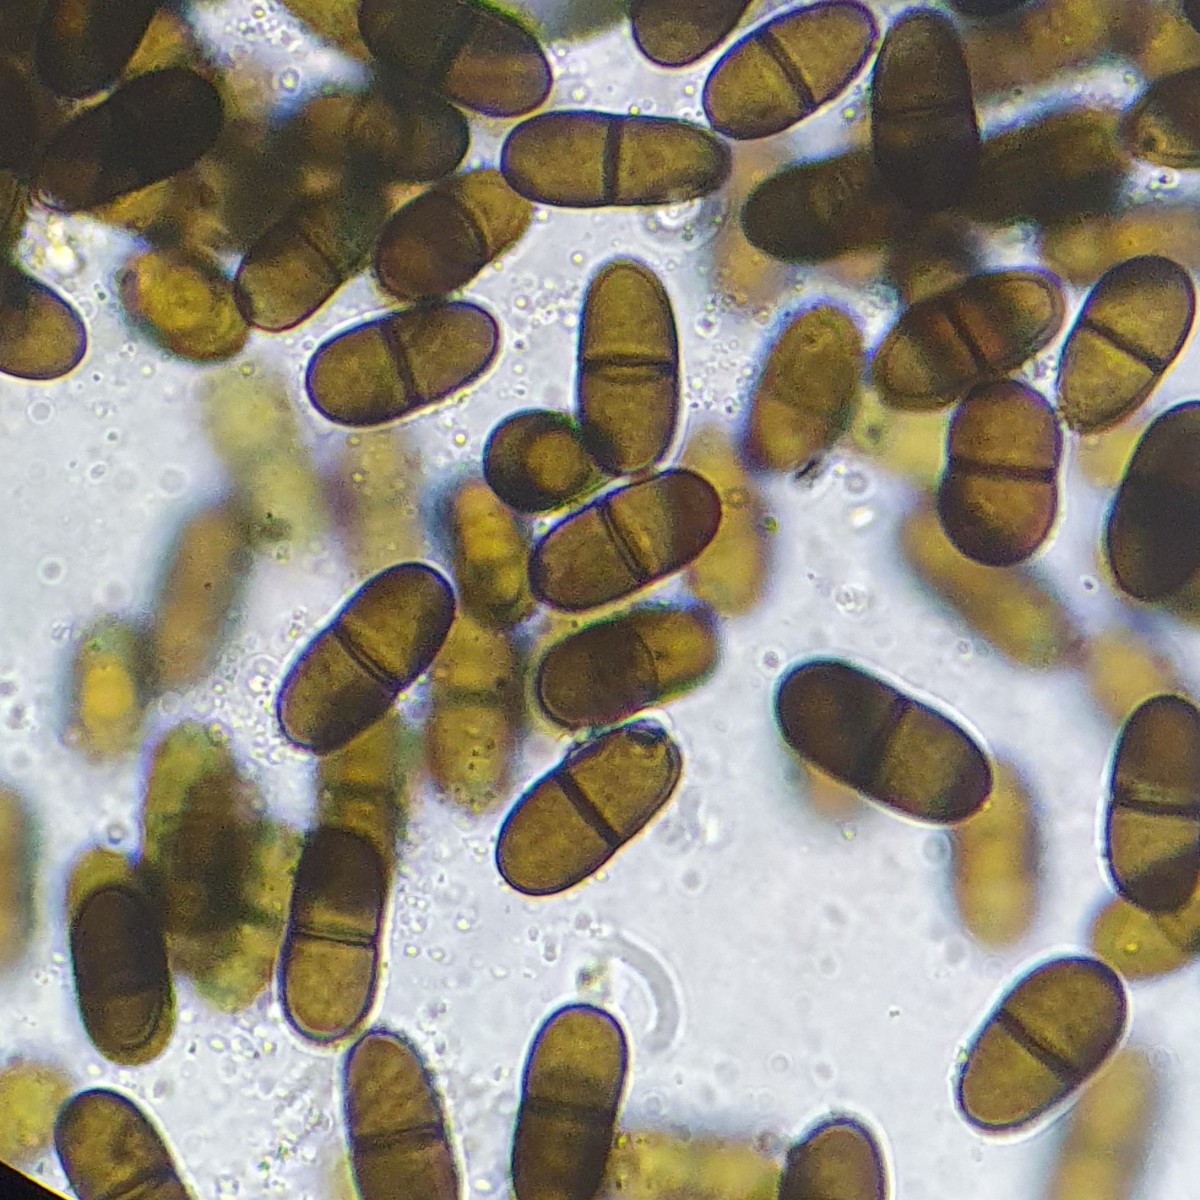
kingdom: Fungi
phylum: Ascomycota
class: Dothideomycetes
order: Botryosphaeriales
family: Botryosphaeriaceae
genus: Diplodia
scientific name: Diplodia coryli
